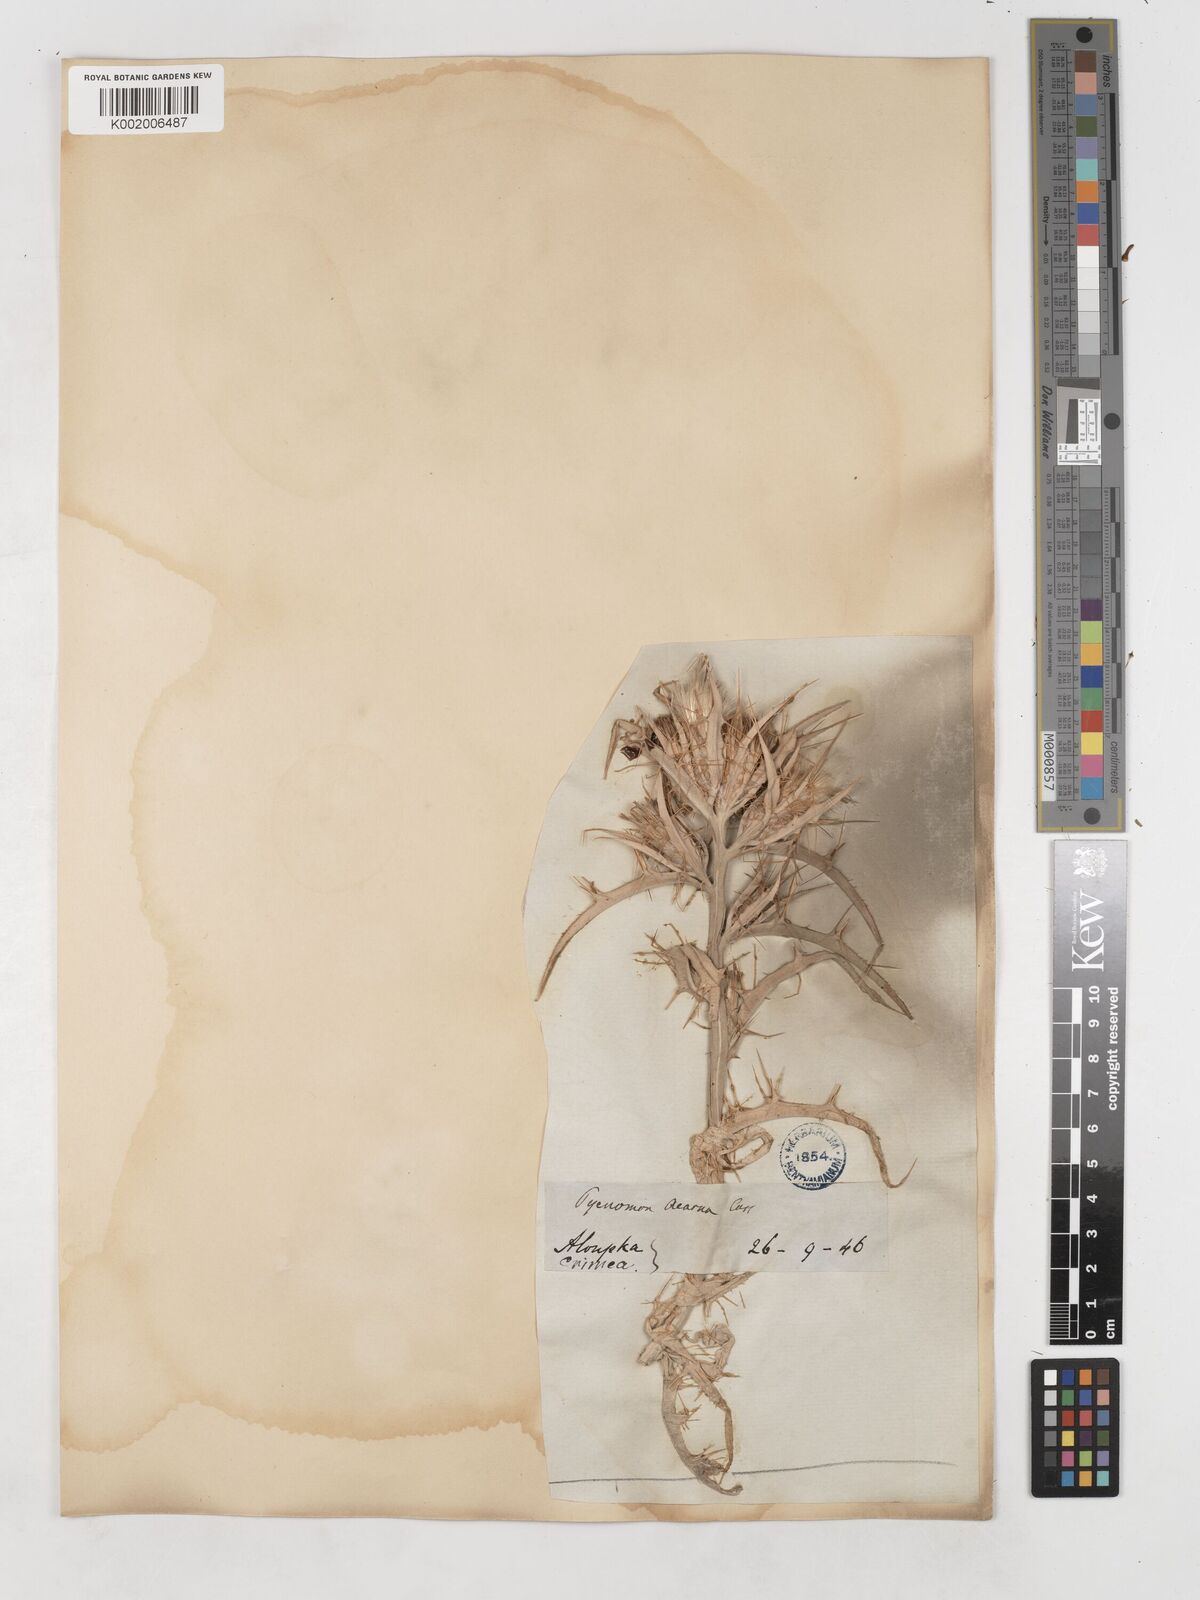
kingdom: Plantae
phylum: Tracheophyta
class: Magnoliopsida
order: Asterales
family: Asteraceae
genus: Picnomon
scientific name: Picnomon acarna
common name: Soldier thistle
